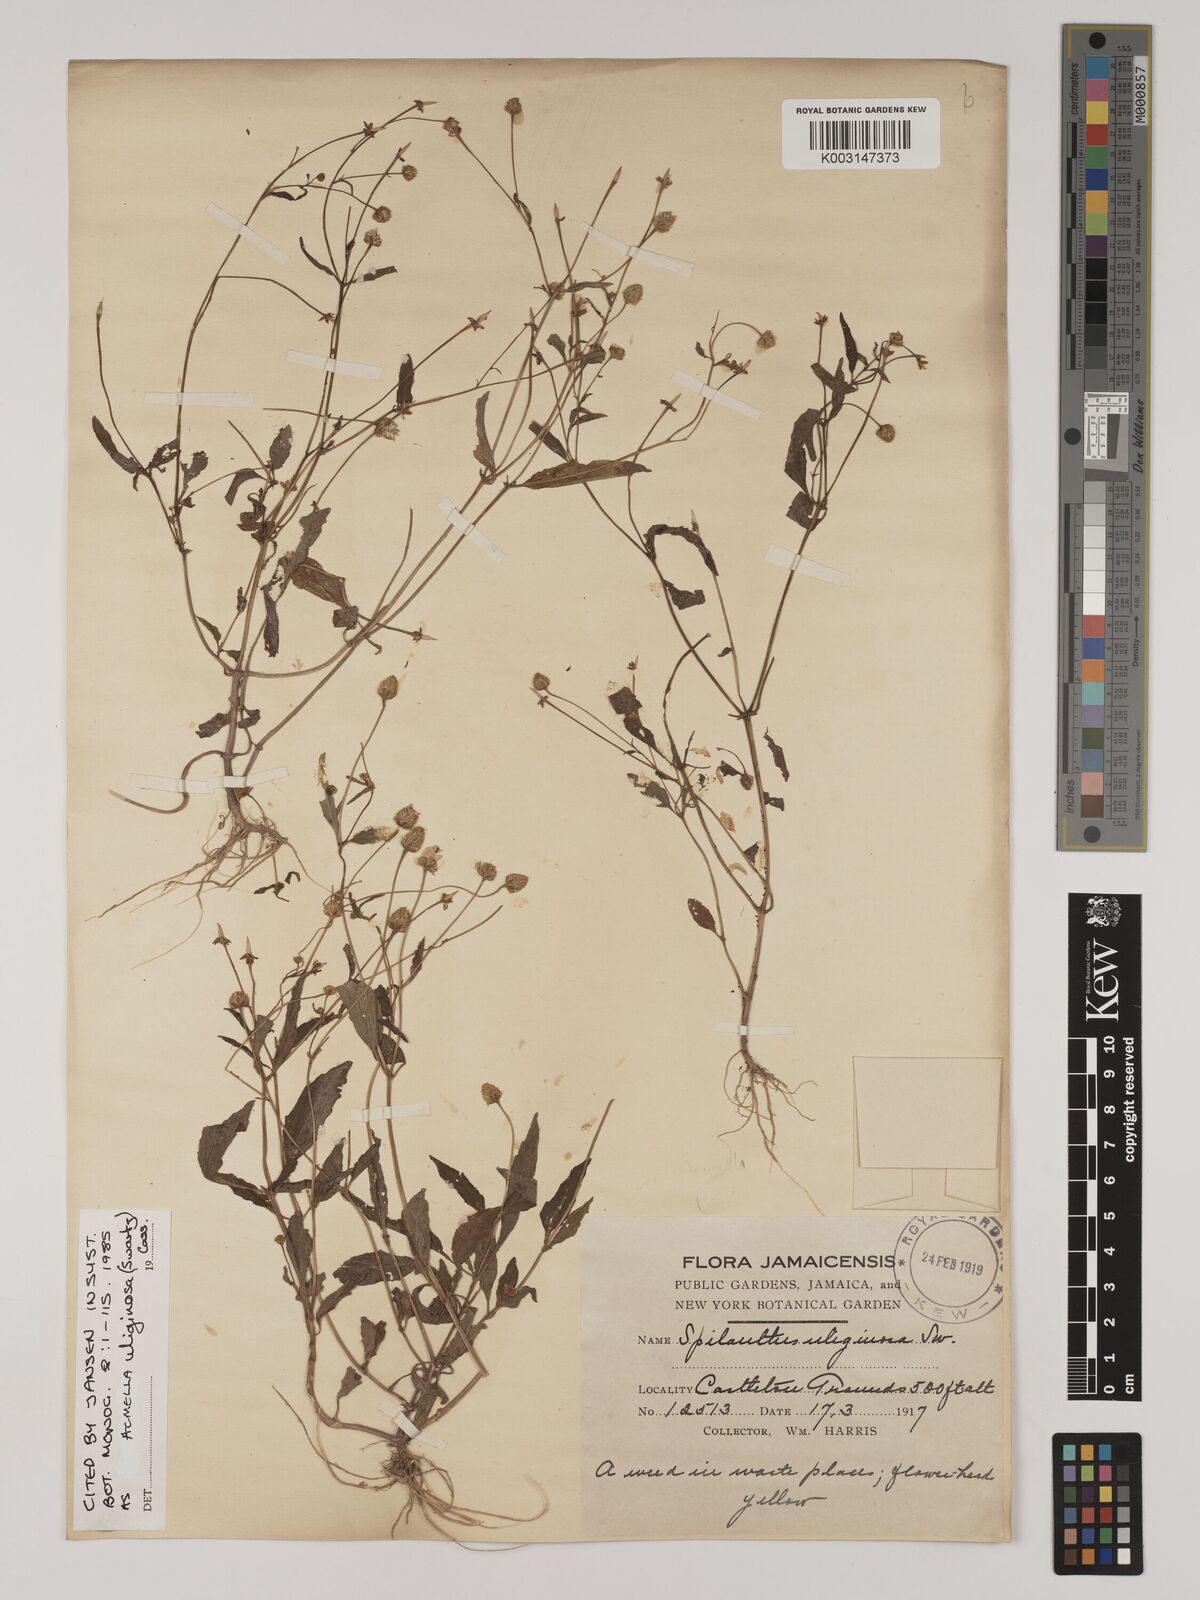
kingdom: Plantae
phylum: Tracheophyta
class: Magnoliopsida
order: Asterales
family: Asteraceae
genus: Acmella
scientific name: Acmella uliginosa
